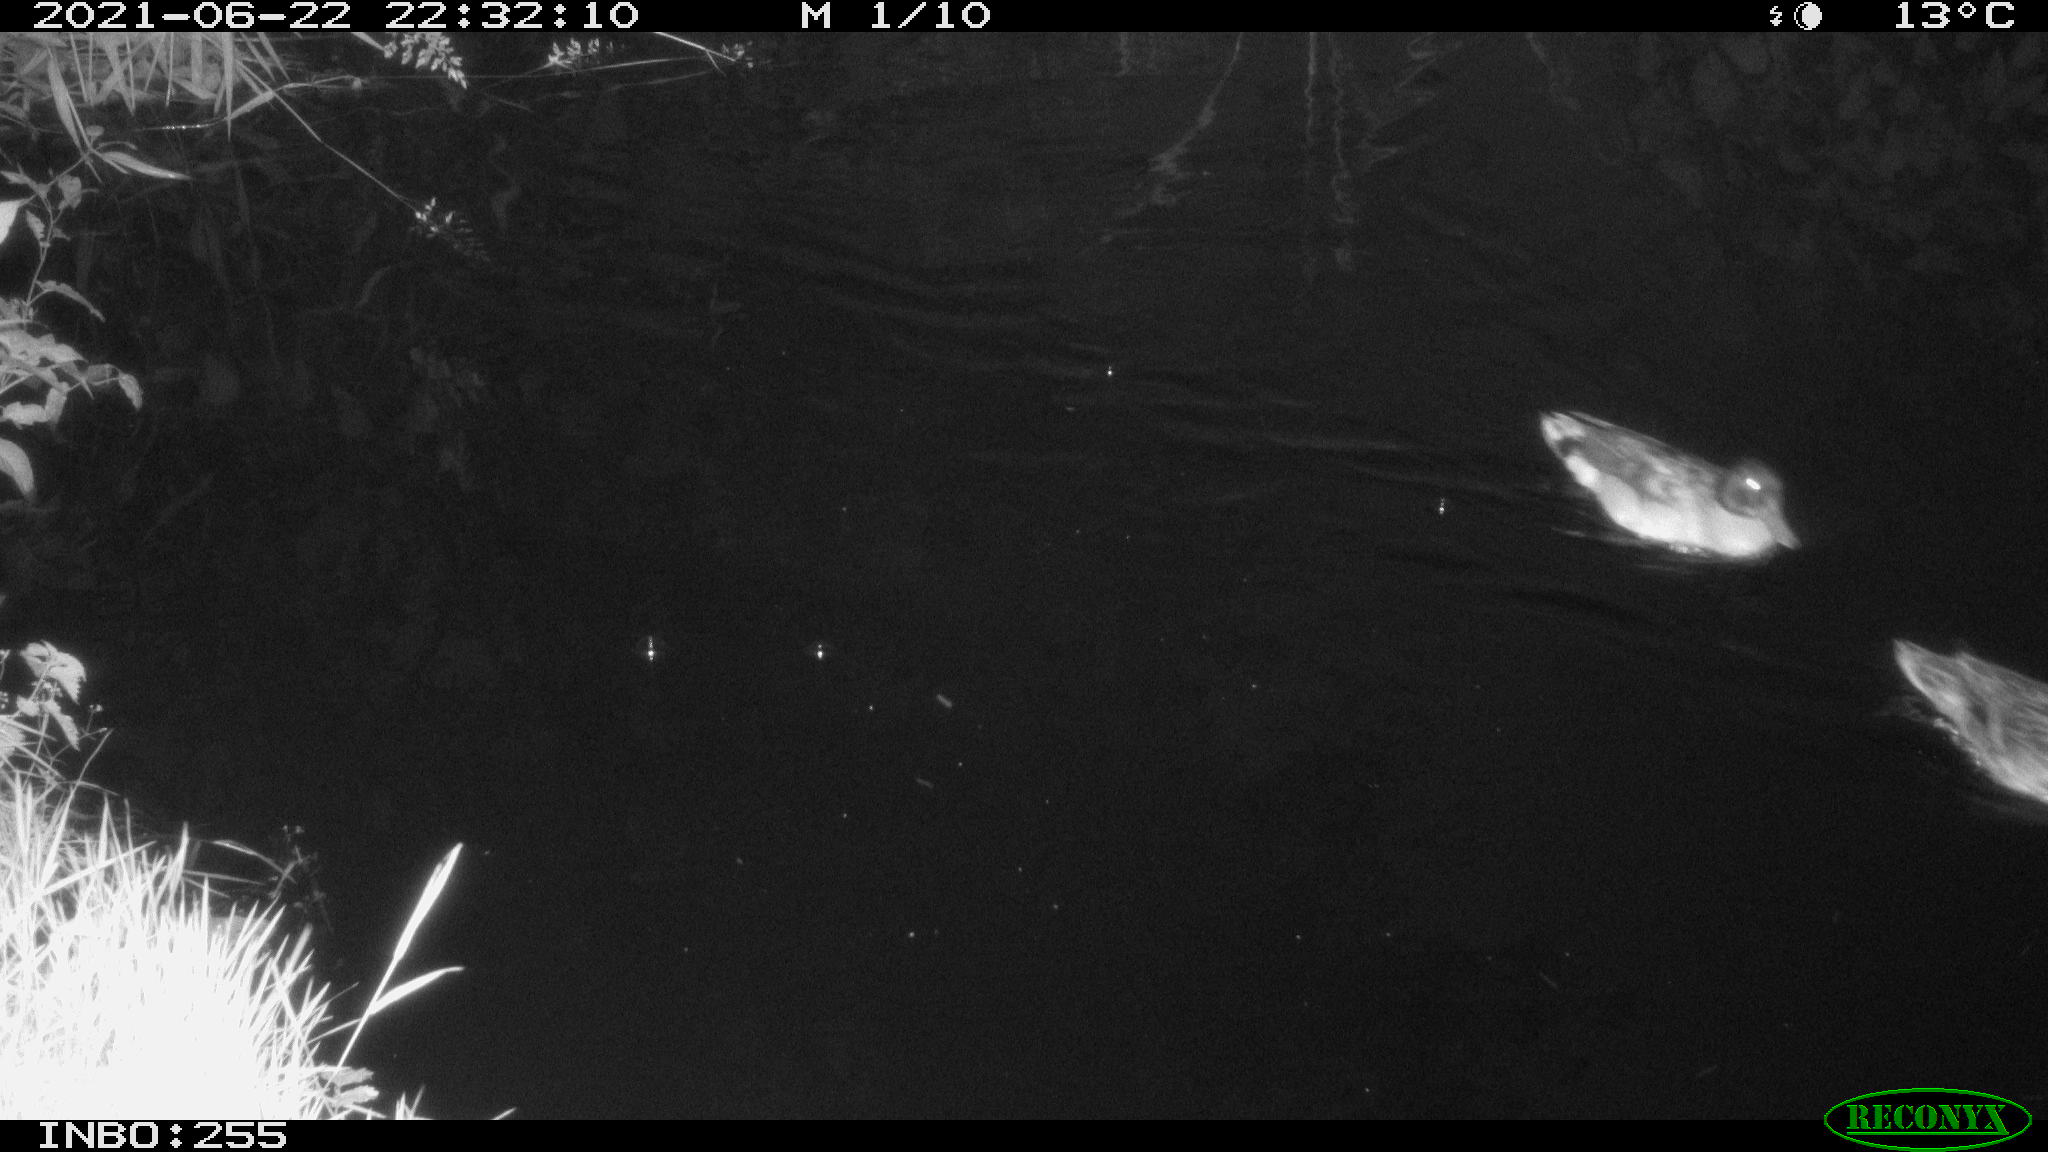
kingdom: Animalia
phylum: Chordata
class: Aves
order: Anseriformes
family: Anatidae
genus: Anas
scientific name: Anas
